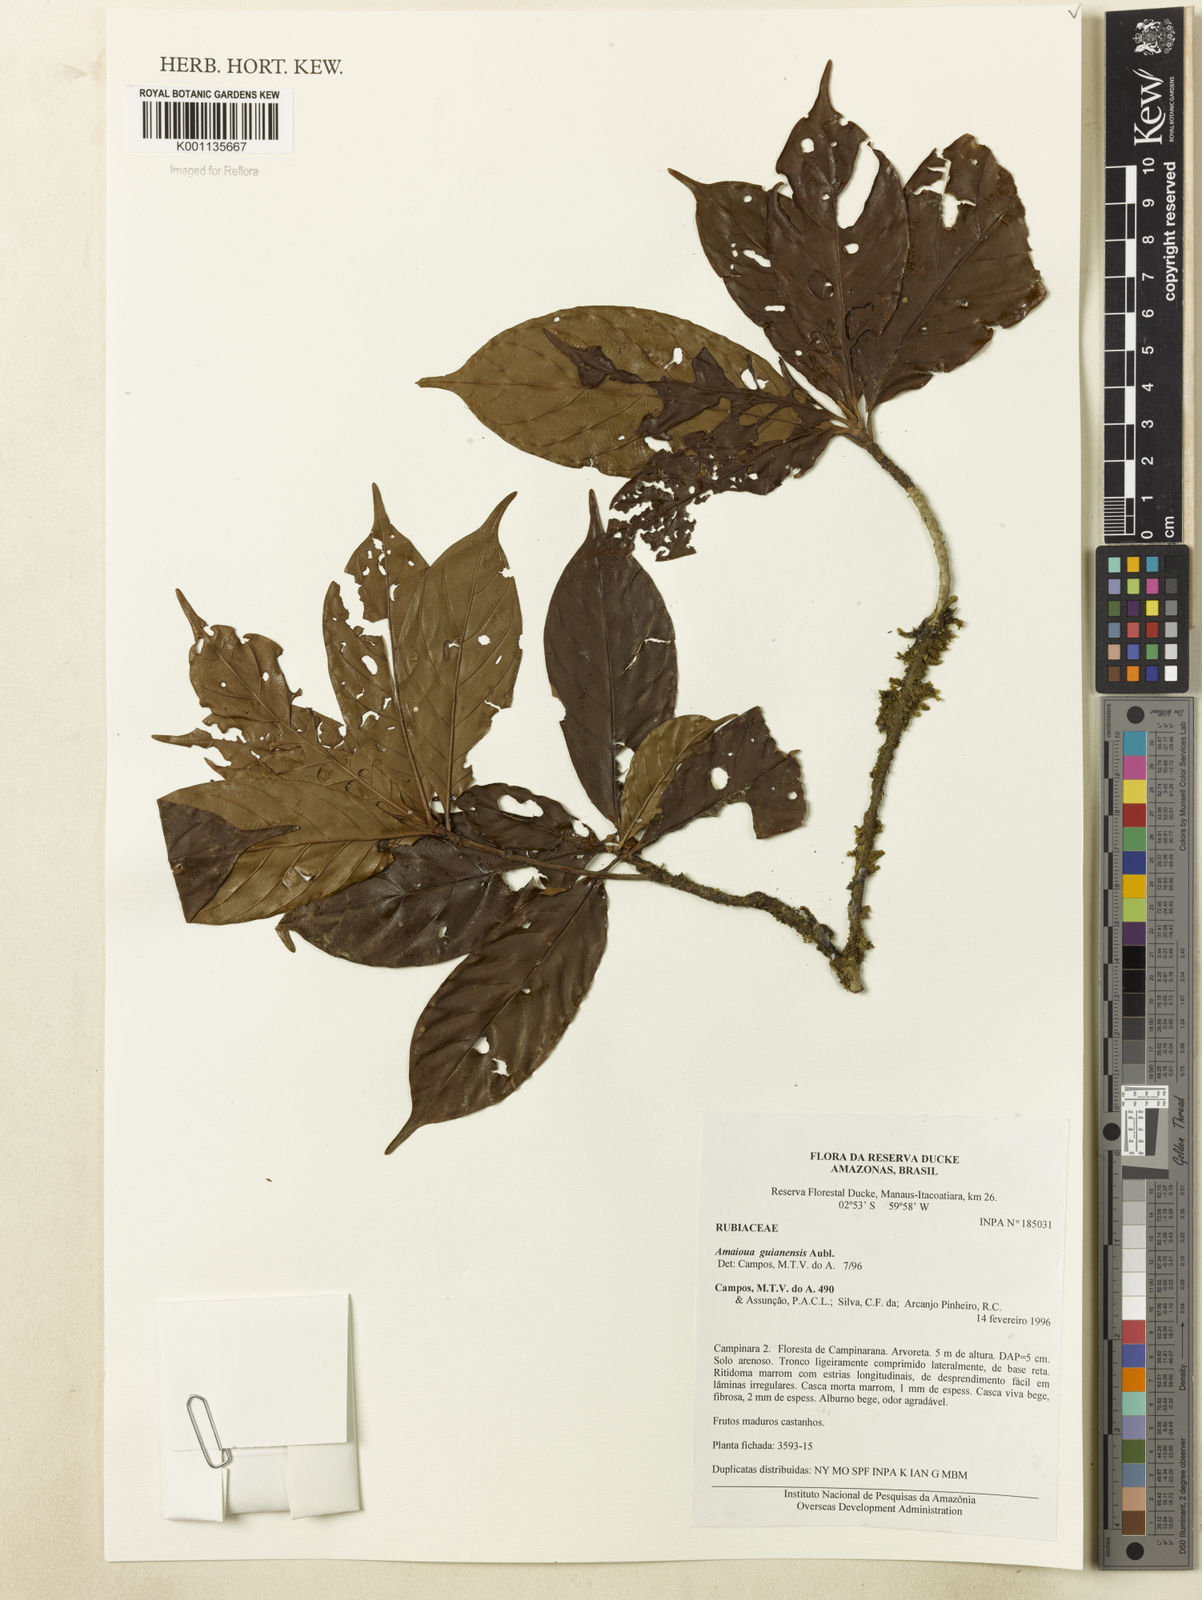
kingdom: Plantae
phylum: Tracheophyta
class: Magnoliopsida
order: Gentianales
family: Rubiaceae
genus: Amaioua
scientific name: Amaioua guianensis
